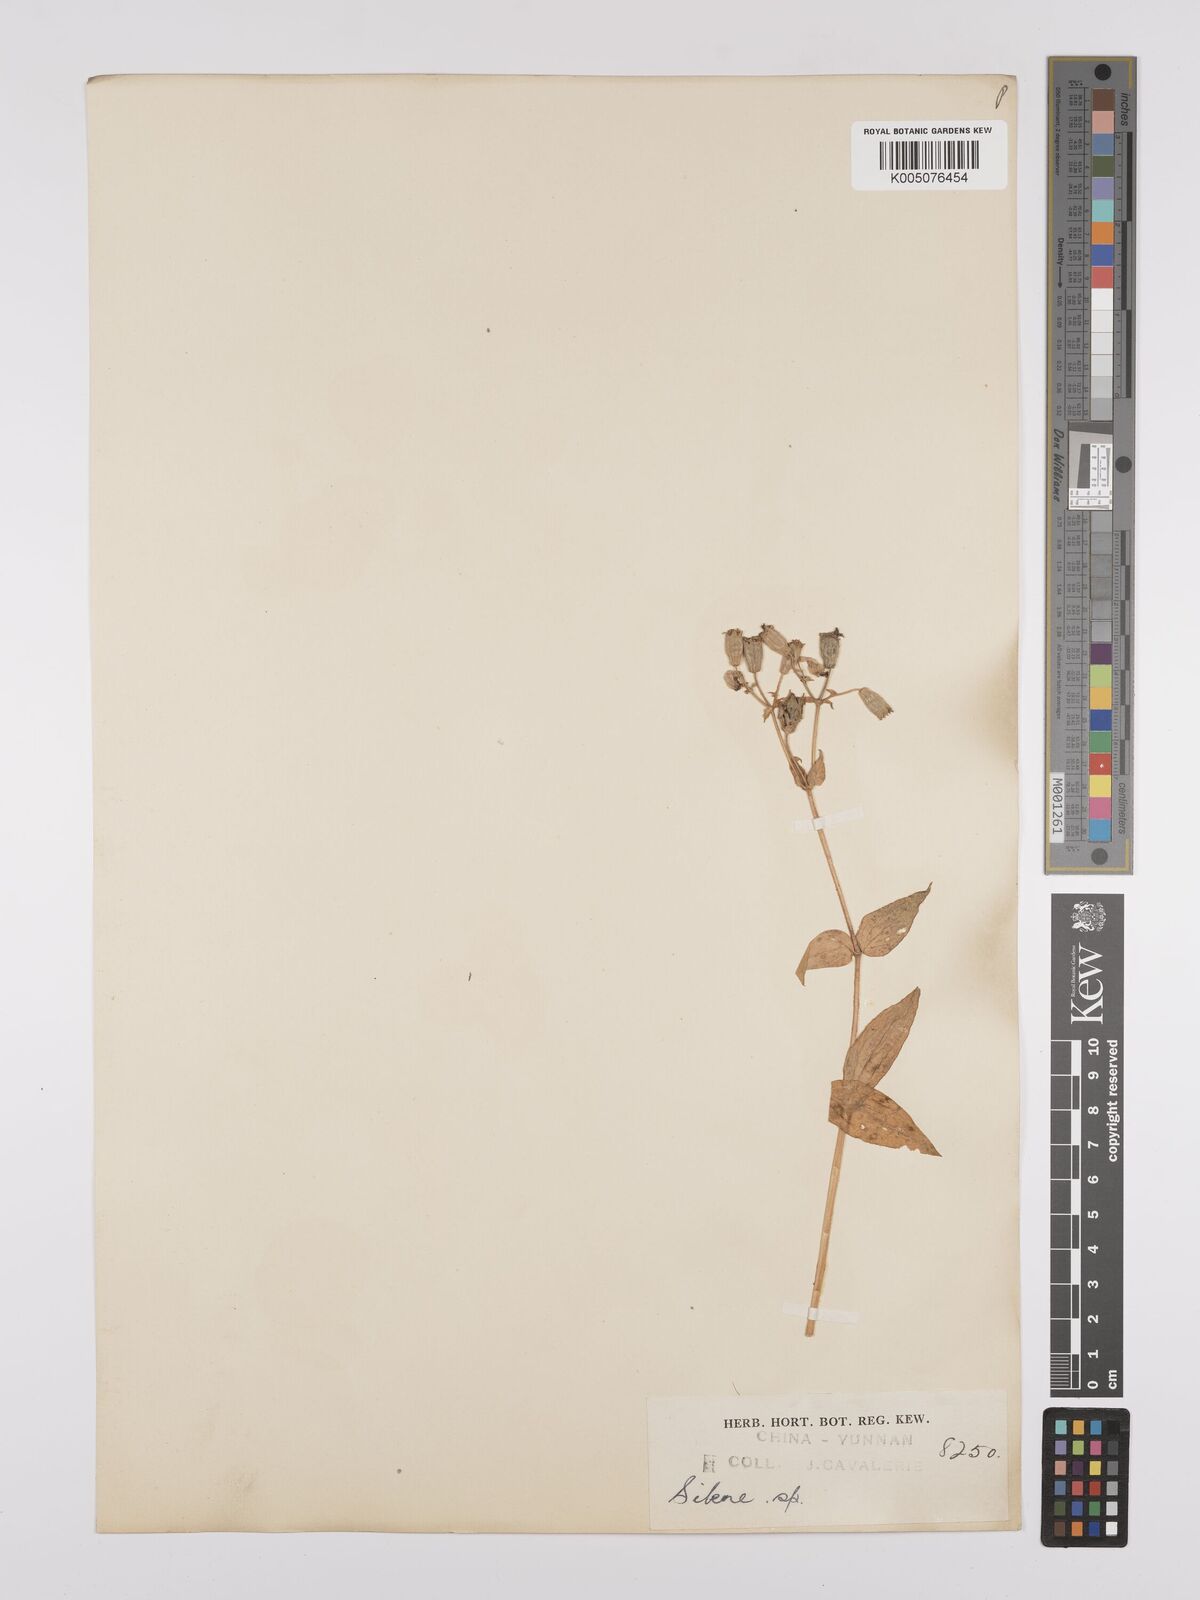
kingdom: Plantae
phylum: Tracheophyta
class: Magnoliopsida
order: Caryophyllales
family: Caryophyllaceae
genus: Silene
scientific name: Silene
